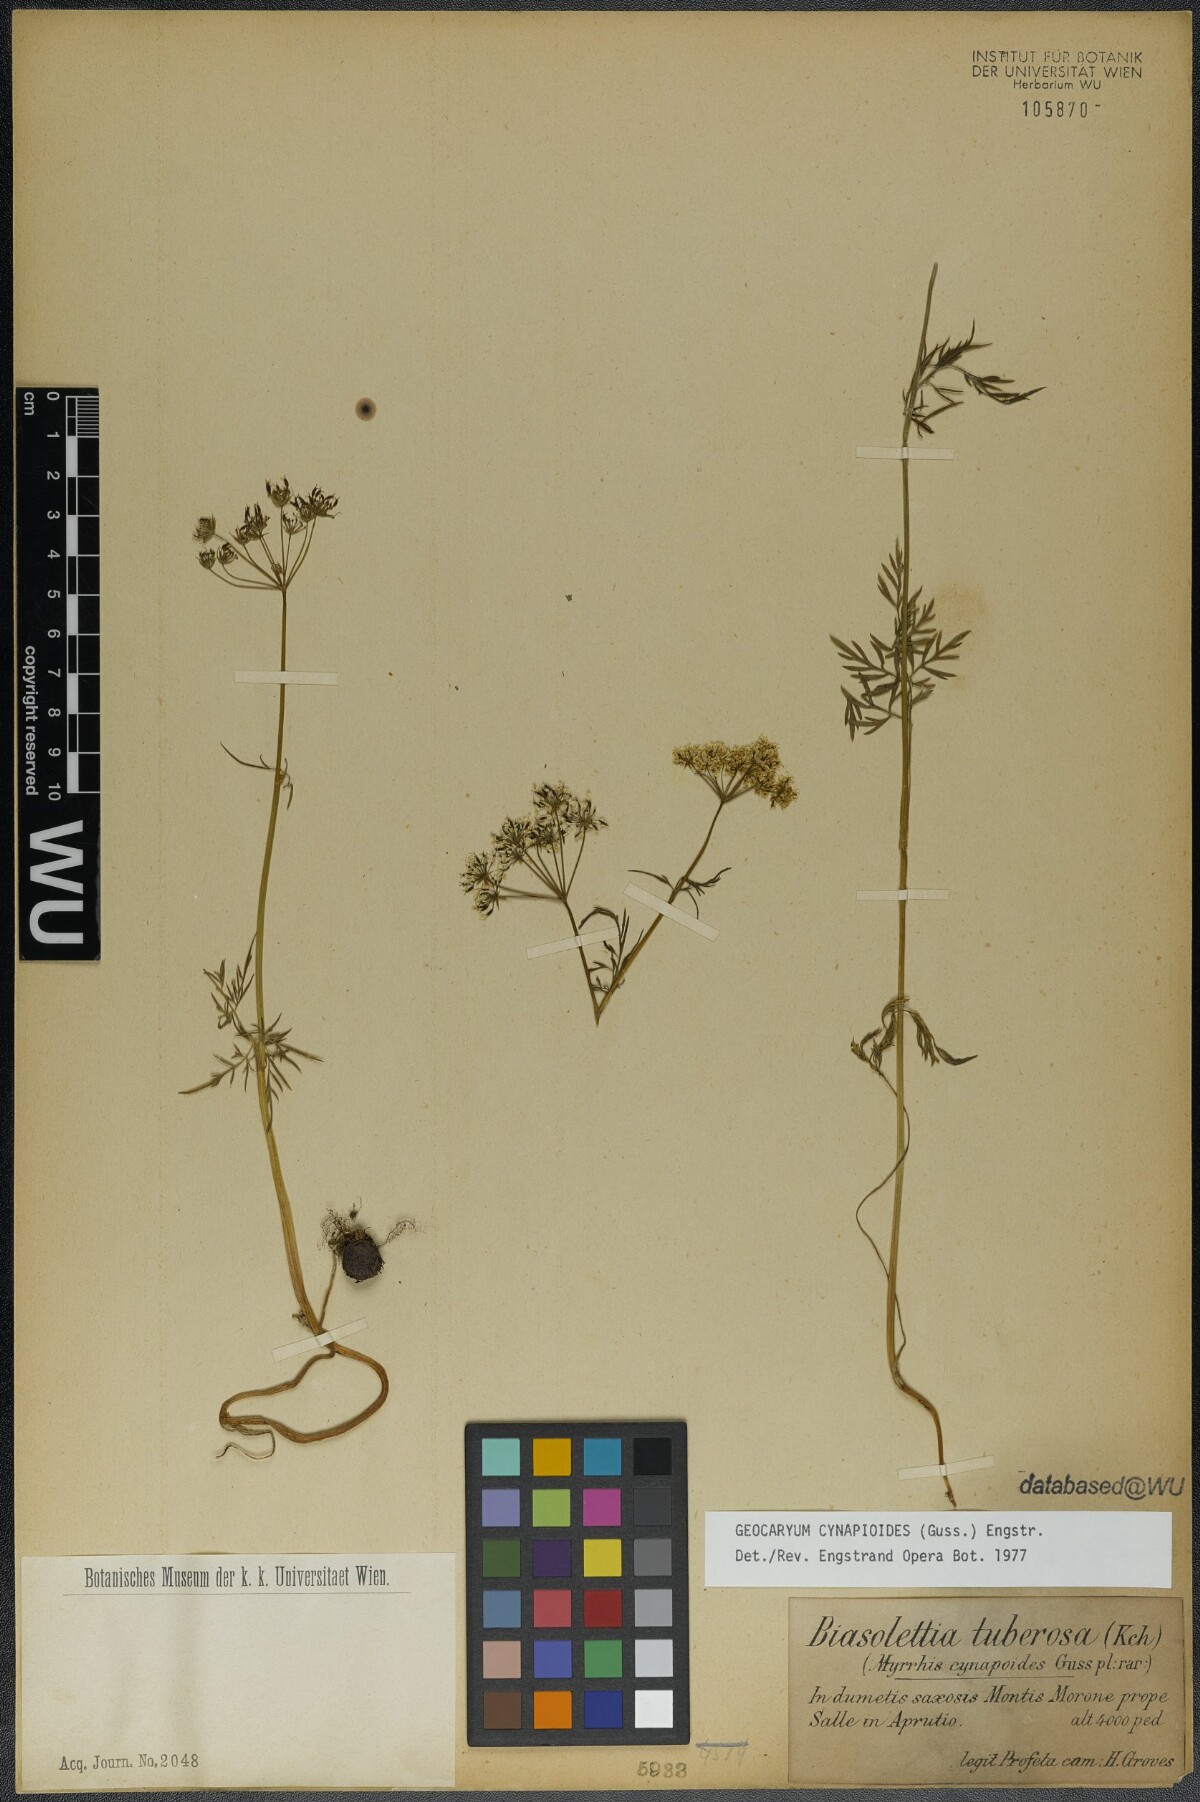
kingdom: Plantae
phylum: Tracheophyta
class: Magnoliopsida
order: Apiales
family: Apiaceae
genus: Geocaryum
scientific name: Geocaryum cynapioides
